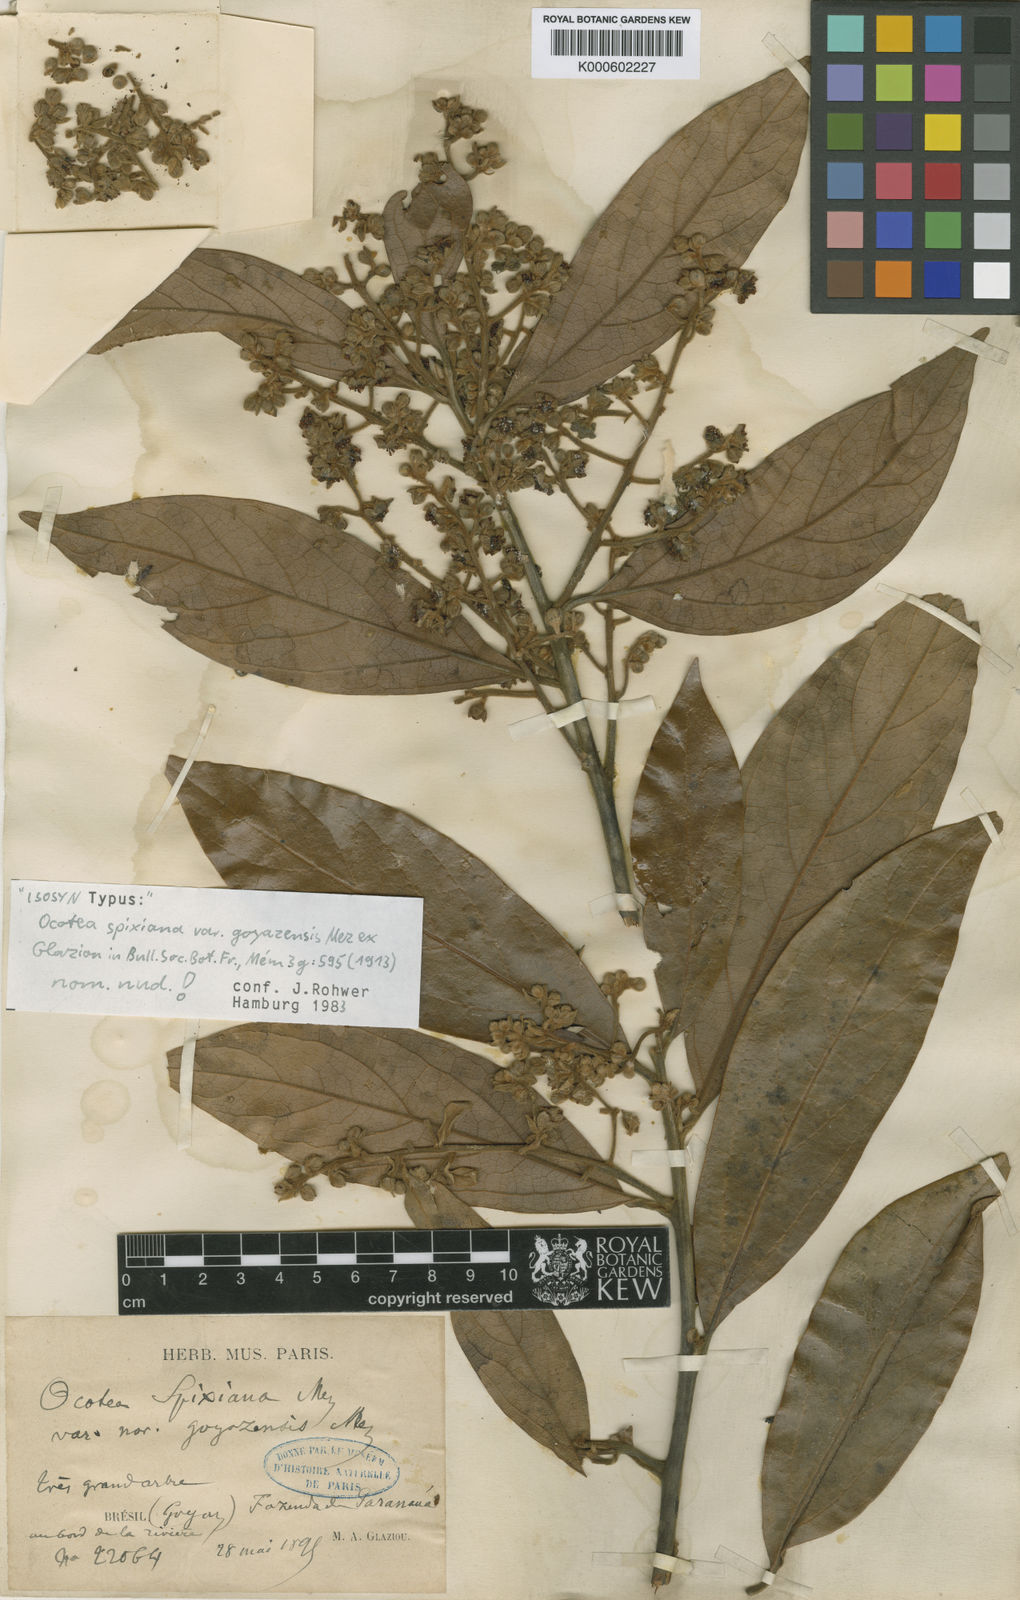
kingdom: Plantae
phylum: Tracheophyta
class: Magnoliopsida
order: Laurales
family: Lauraceae
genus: Ocotea
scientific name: Ocotea spixiana
